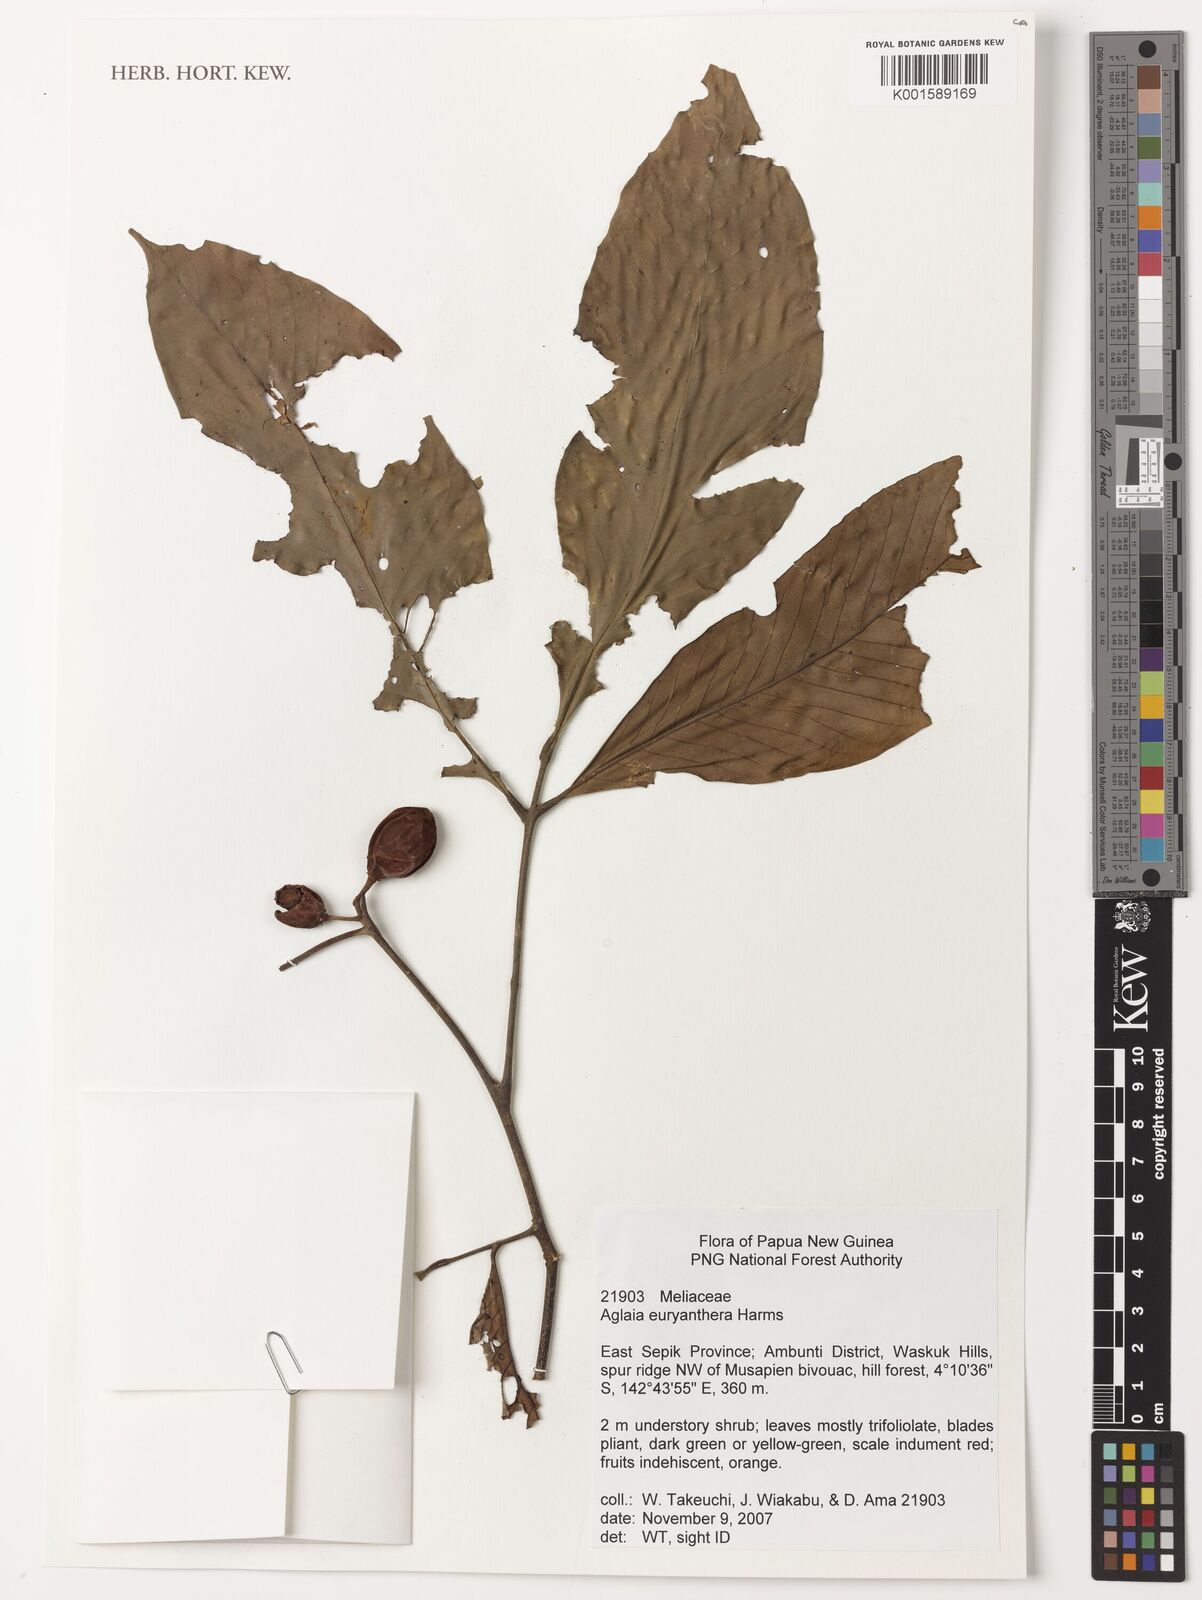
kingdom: Plantae
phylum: Tracheophyta
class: Magnoliopsida
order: Sapindales
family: Meliaceae
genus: Aglaia
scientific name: Aglaia euryanthera
